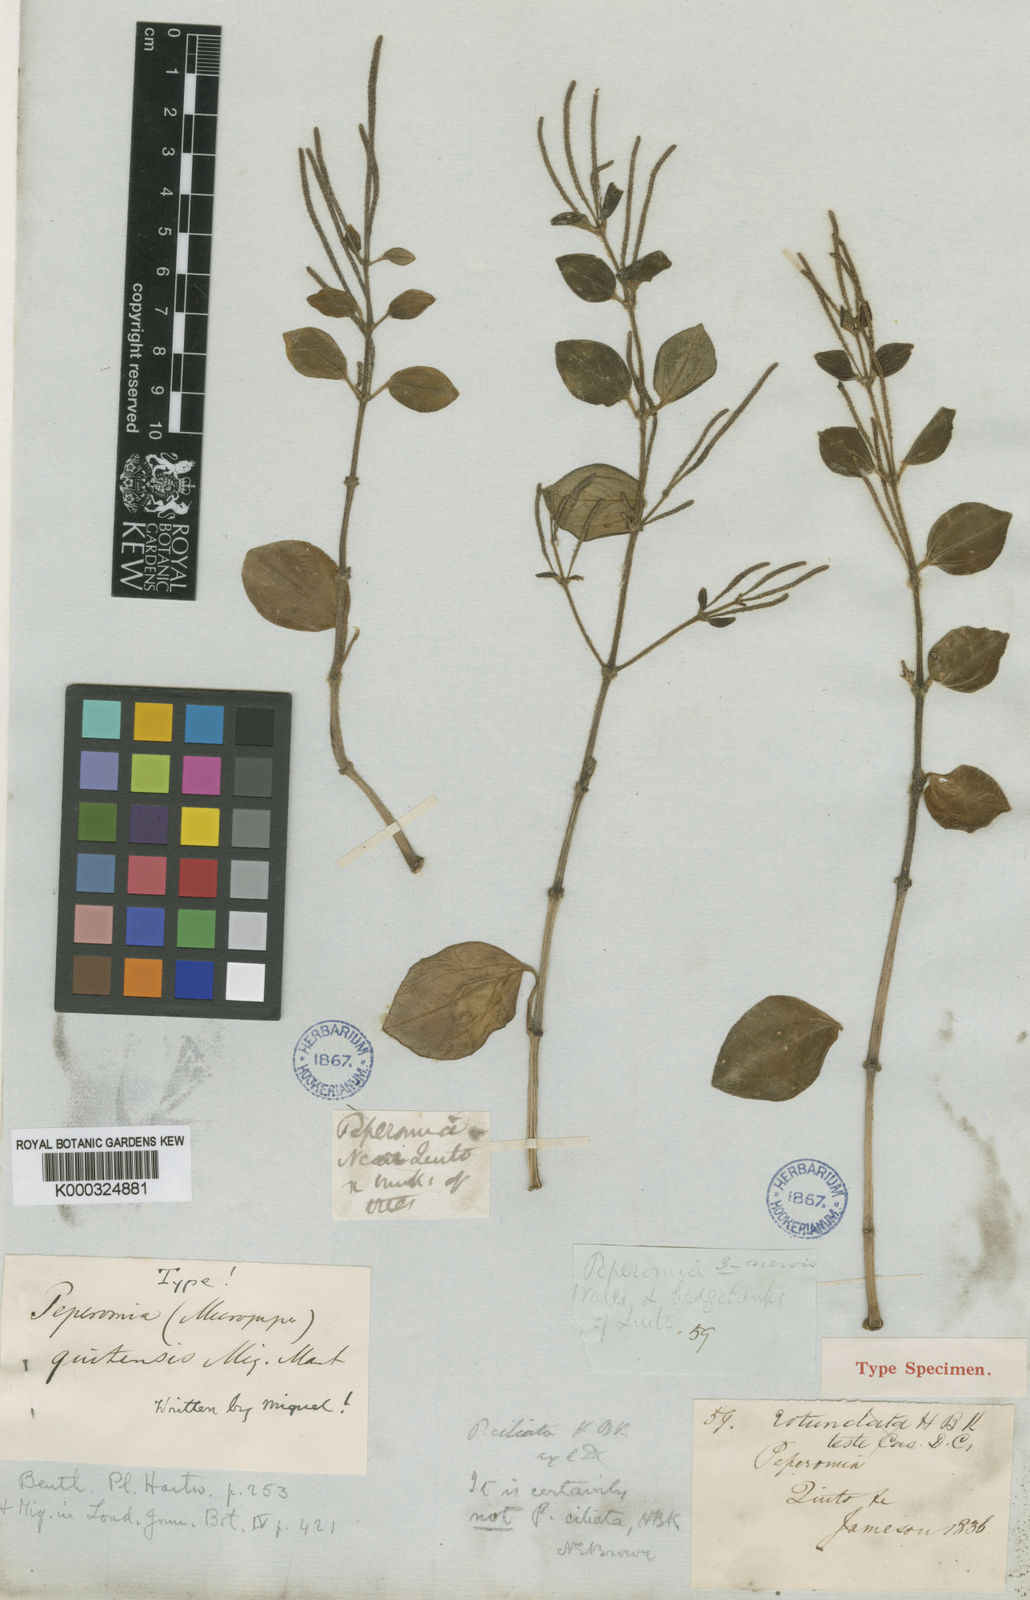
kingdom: Plantae
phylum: Tracheophyta
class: Magnoliopsida
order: Piperales
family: Piperaceae
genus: Peperomia
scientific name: Peperomia blanda
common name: Arid-land peperomia
